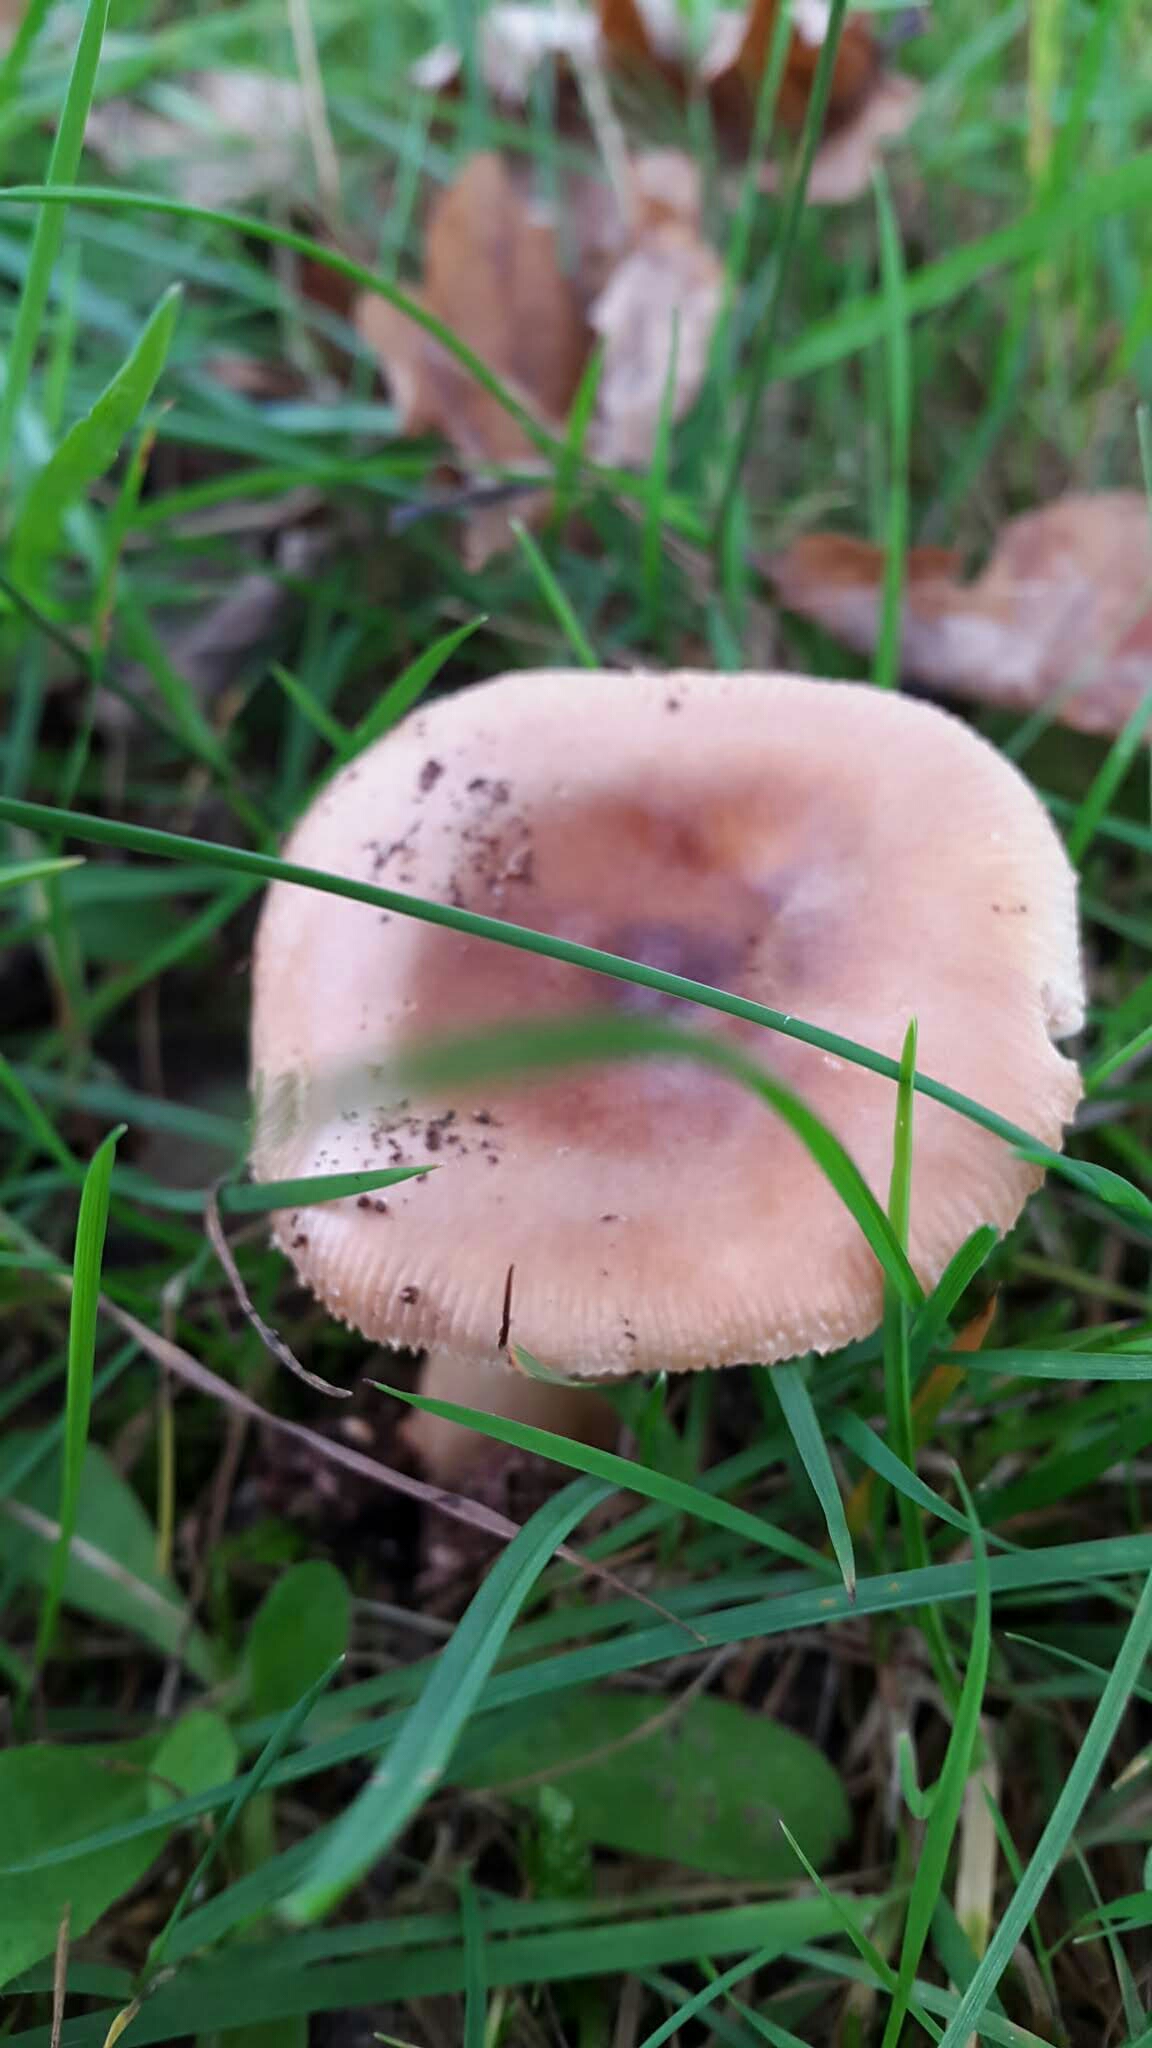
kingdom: Fungi
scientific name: Fungi
